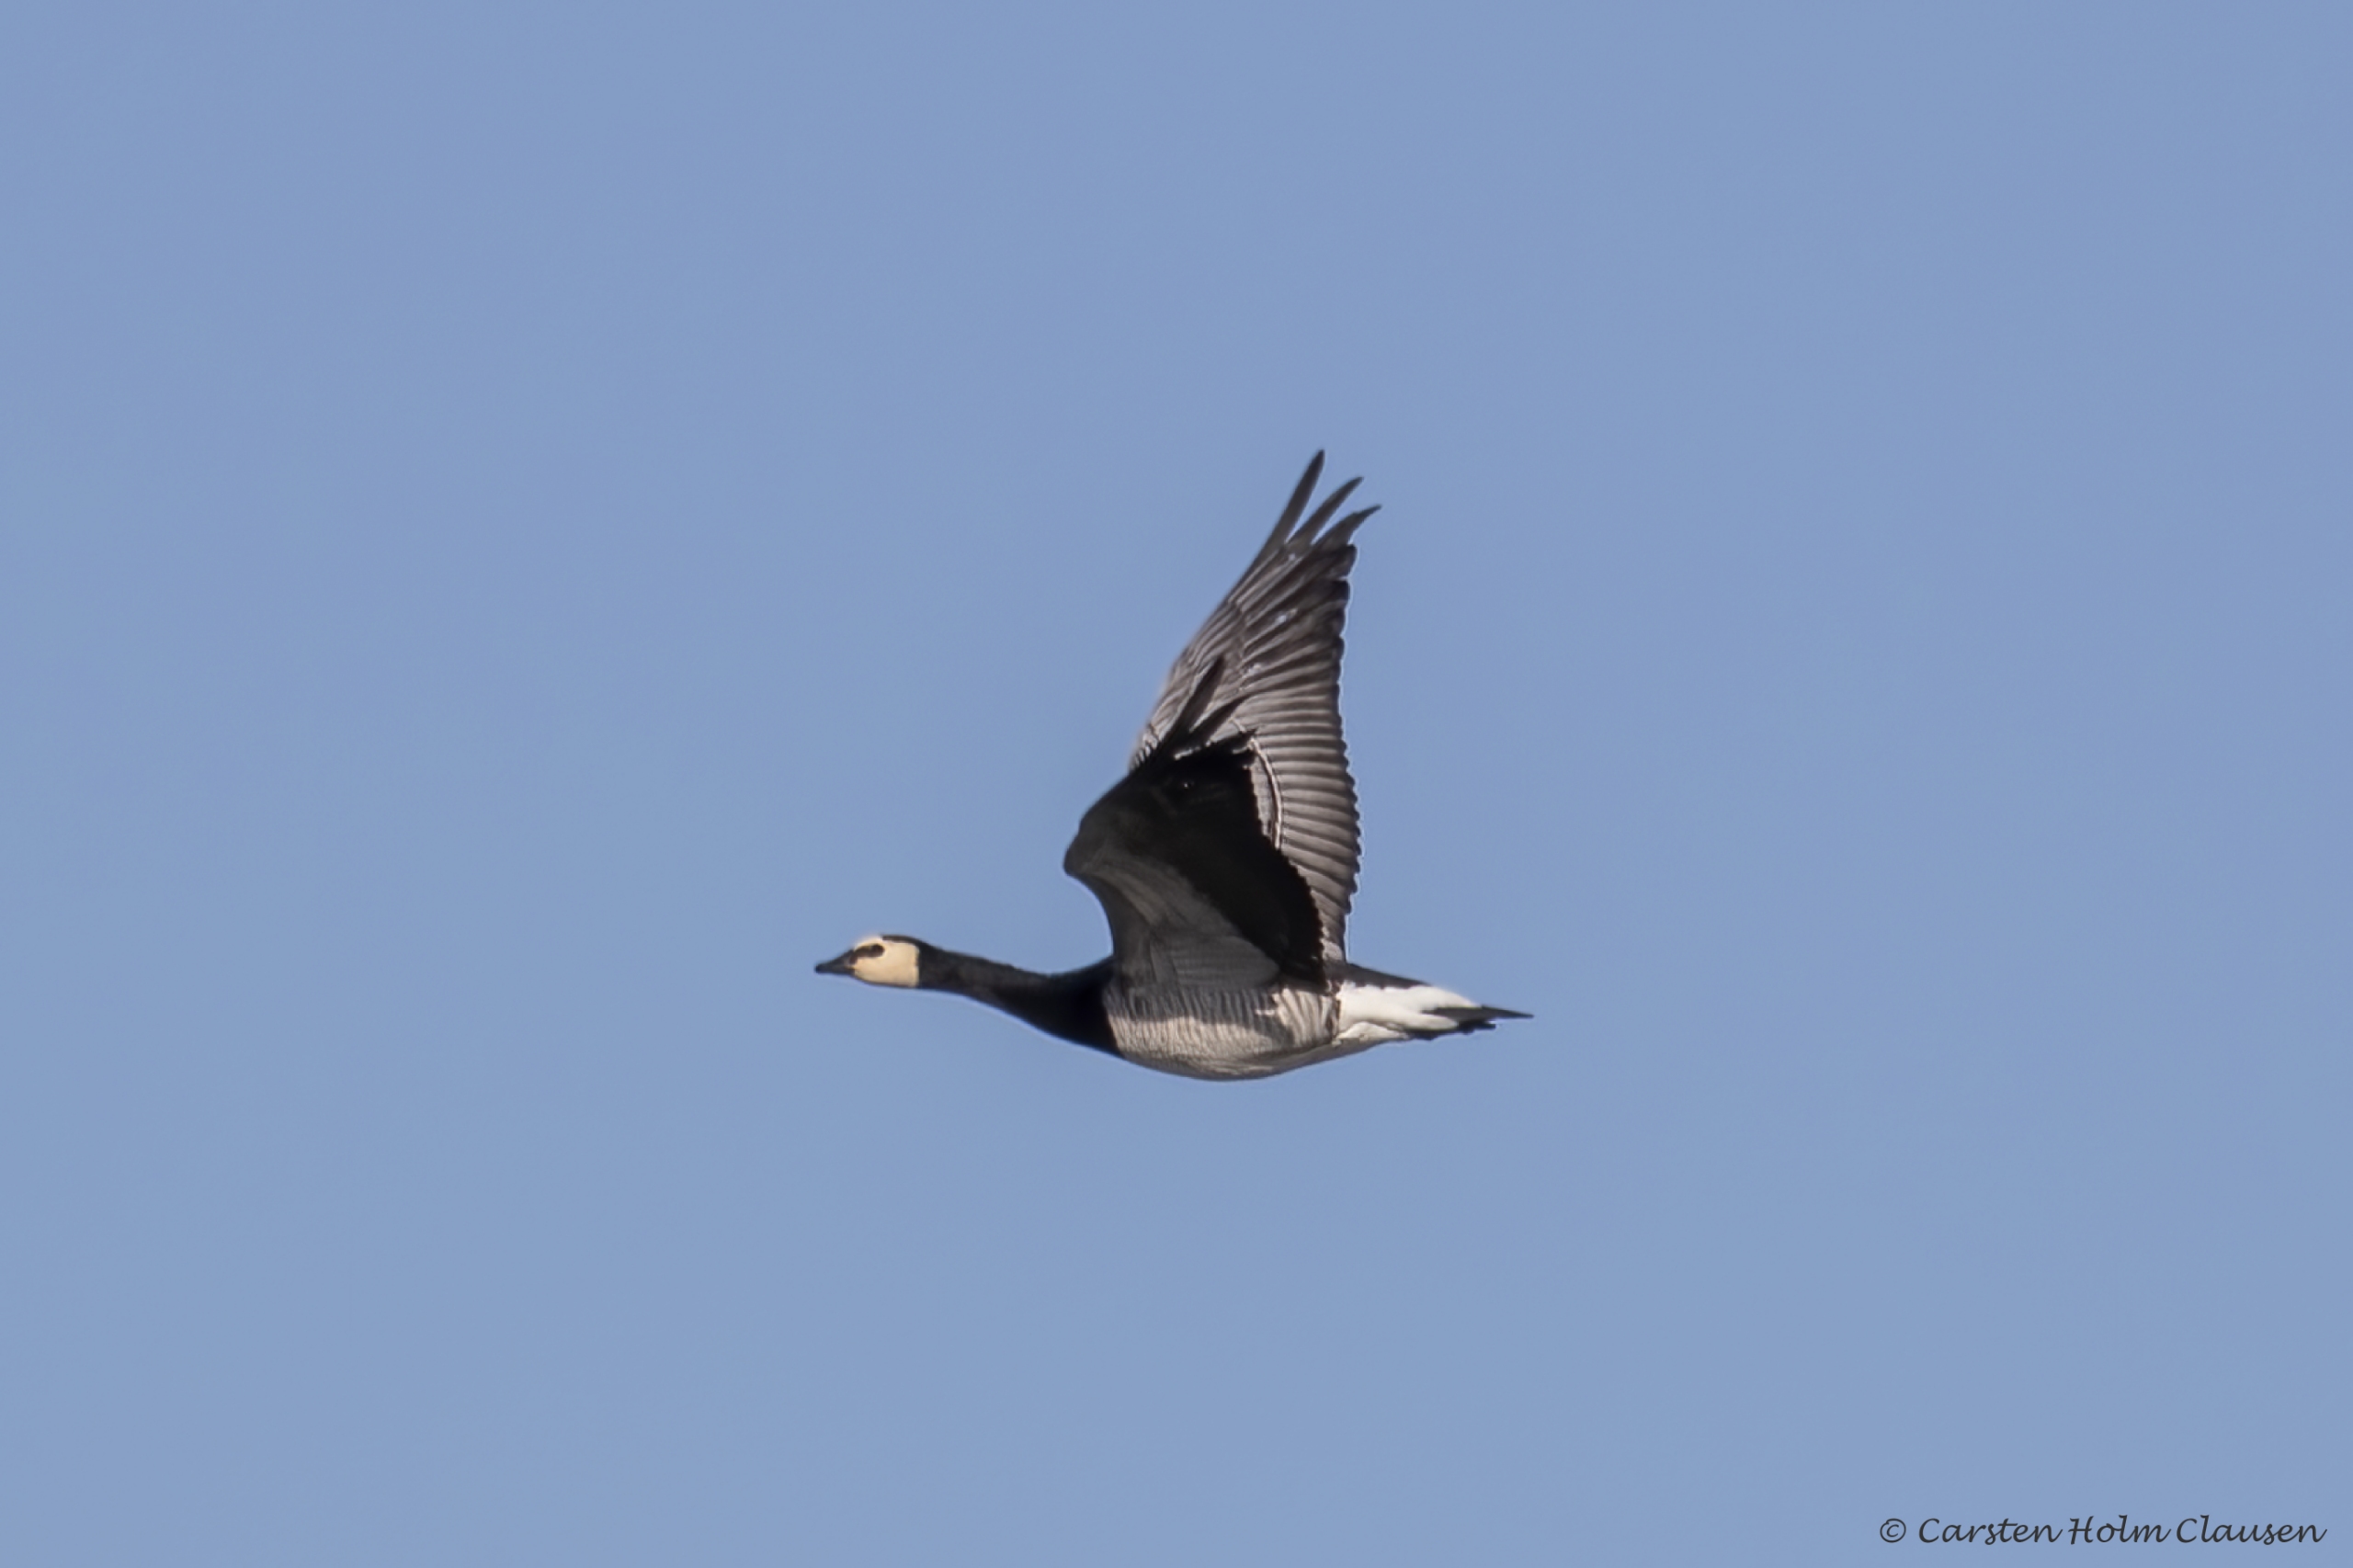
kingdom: Animalia
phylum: Chordata
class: Aves
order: Anseriformes
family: Anatidae
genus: Branta
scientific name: Branta leucopsis
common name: Bramgås
